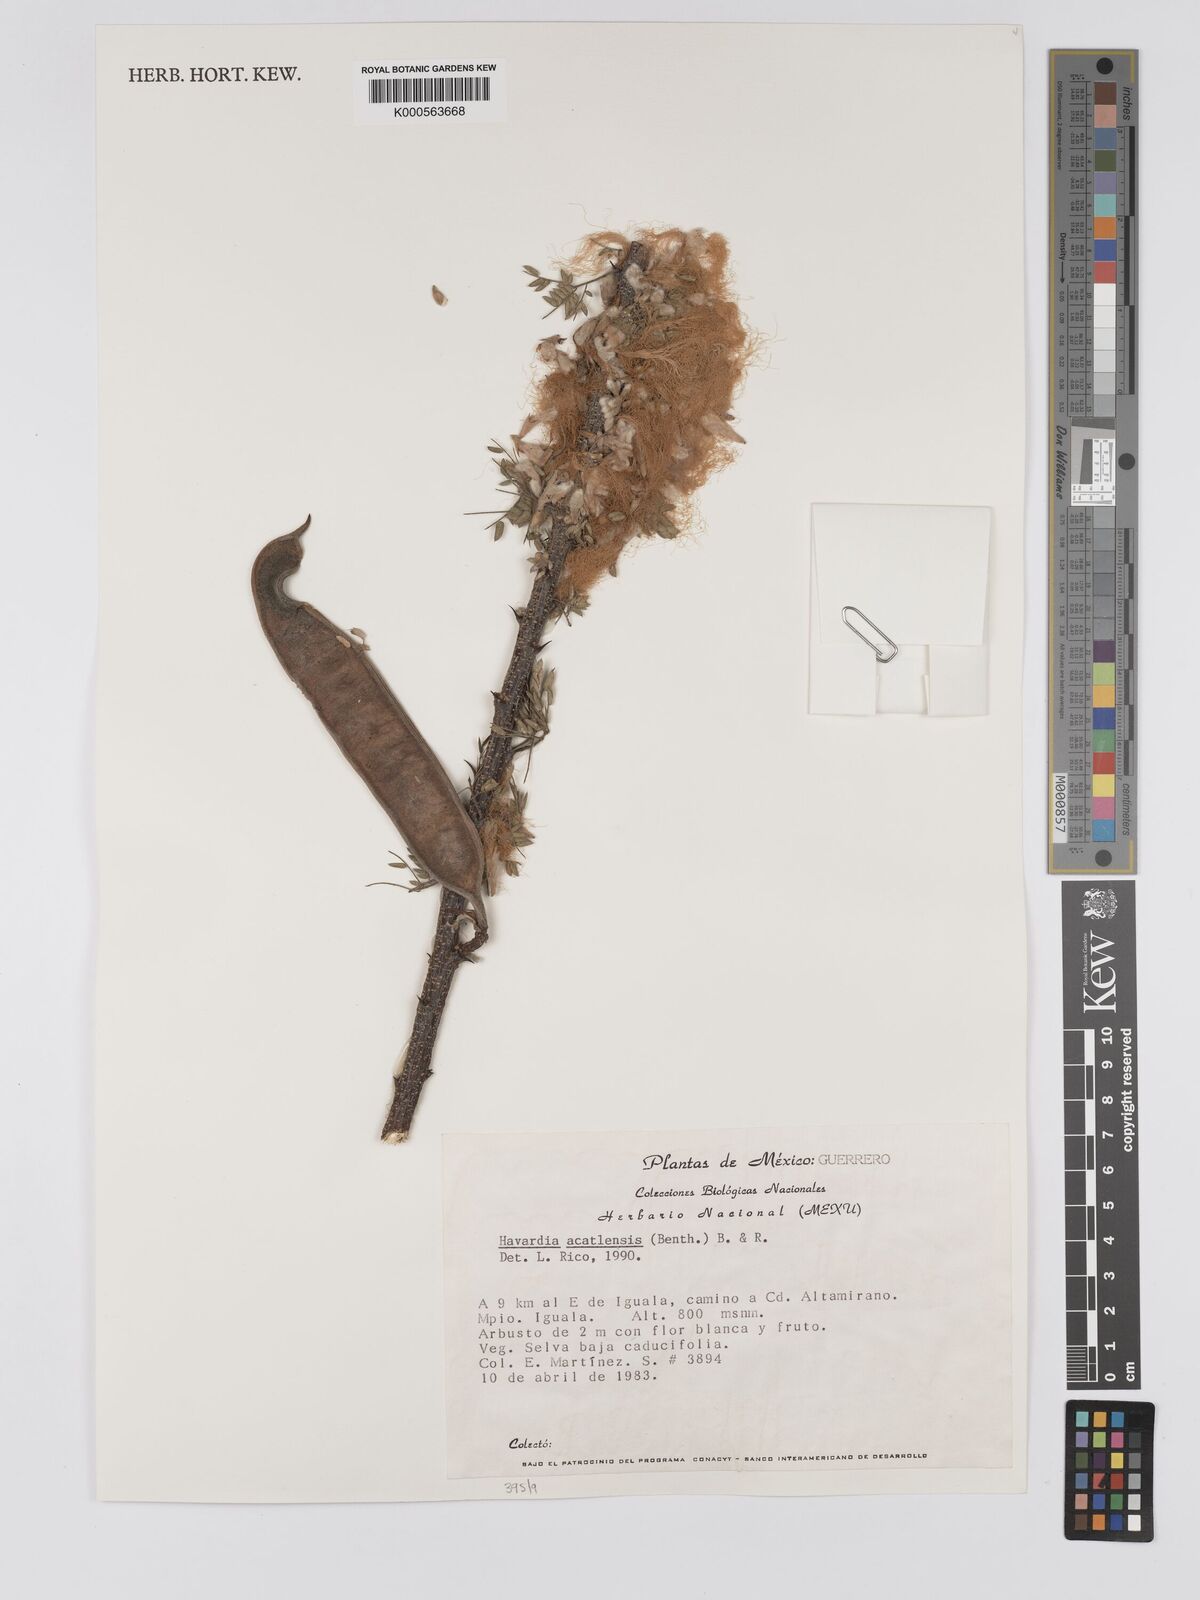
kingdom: Plantae
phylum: Tracheophyta
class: Magnoliopsida
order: Fabales
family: Fabaceae
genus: Havardia
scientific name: Havardia acatlensis
